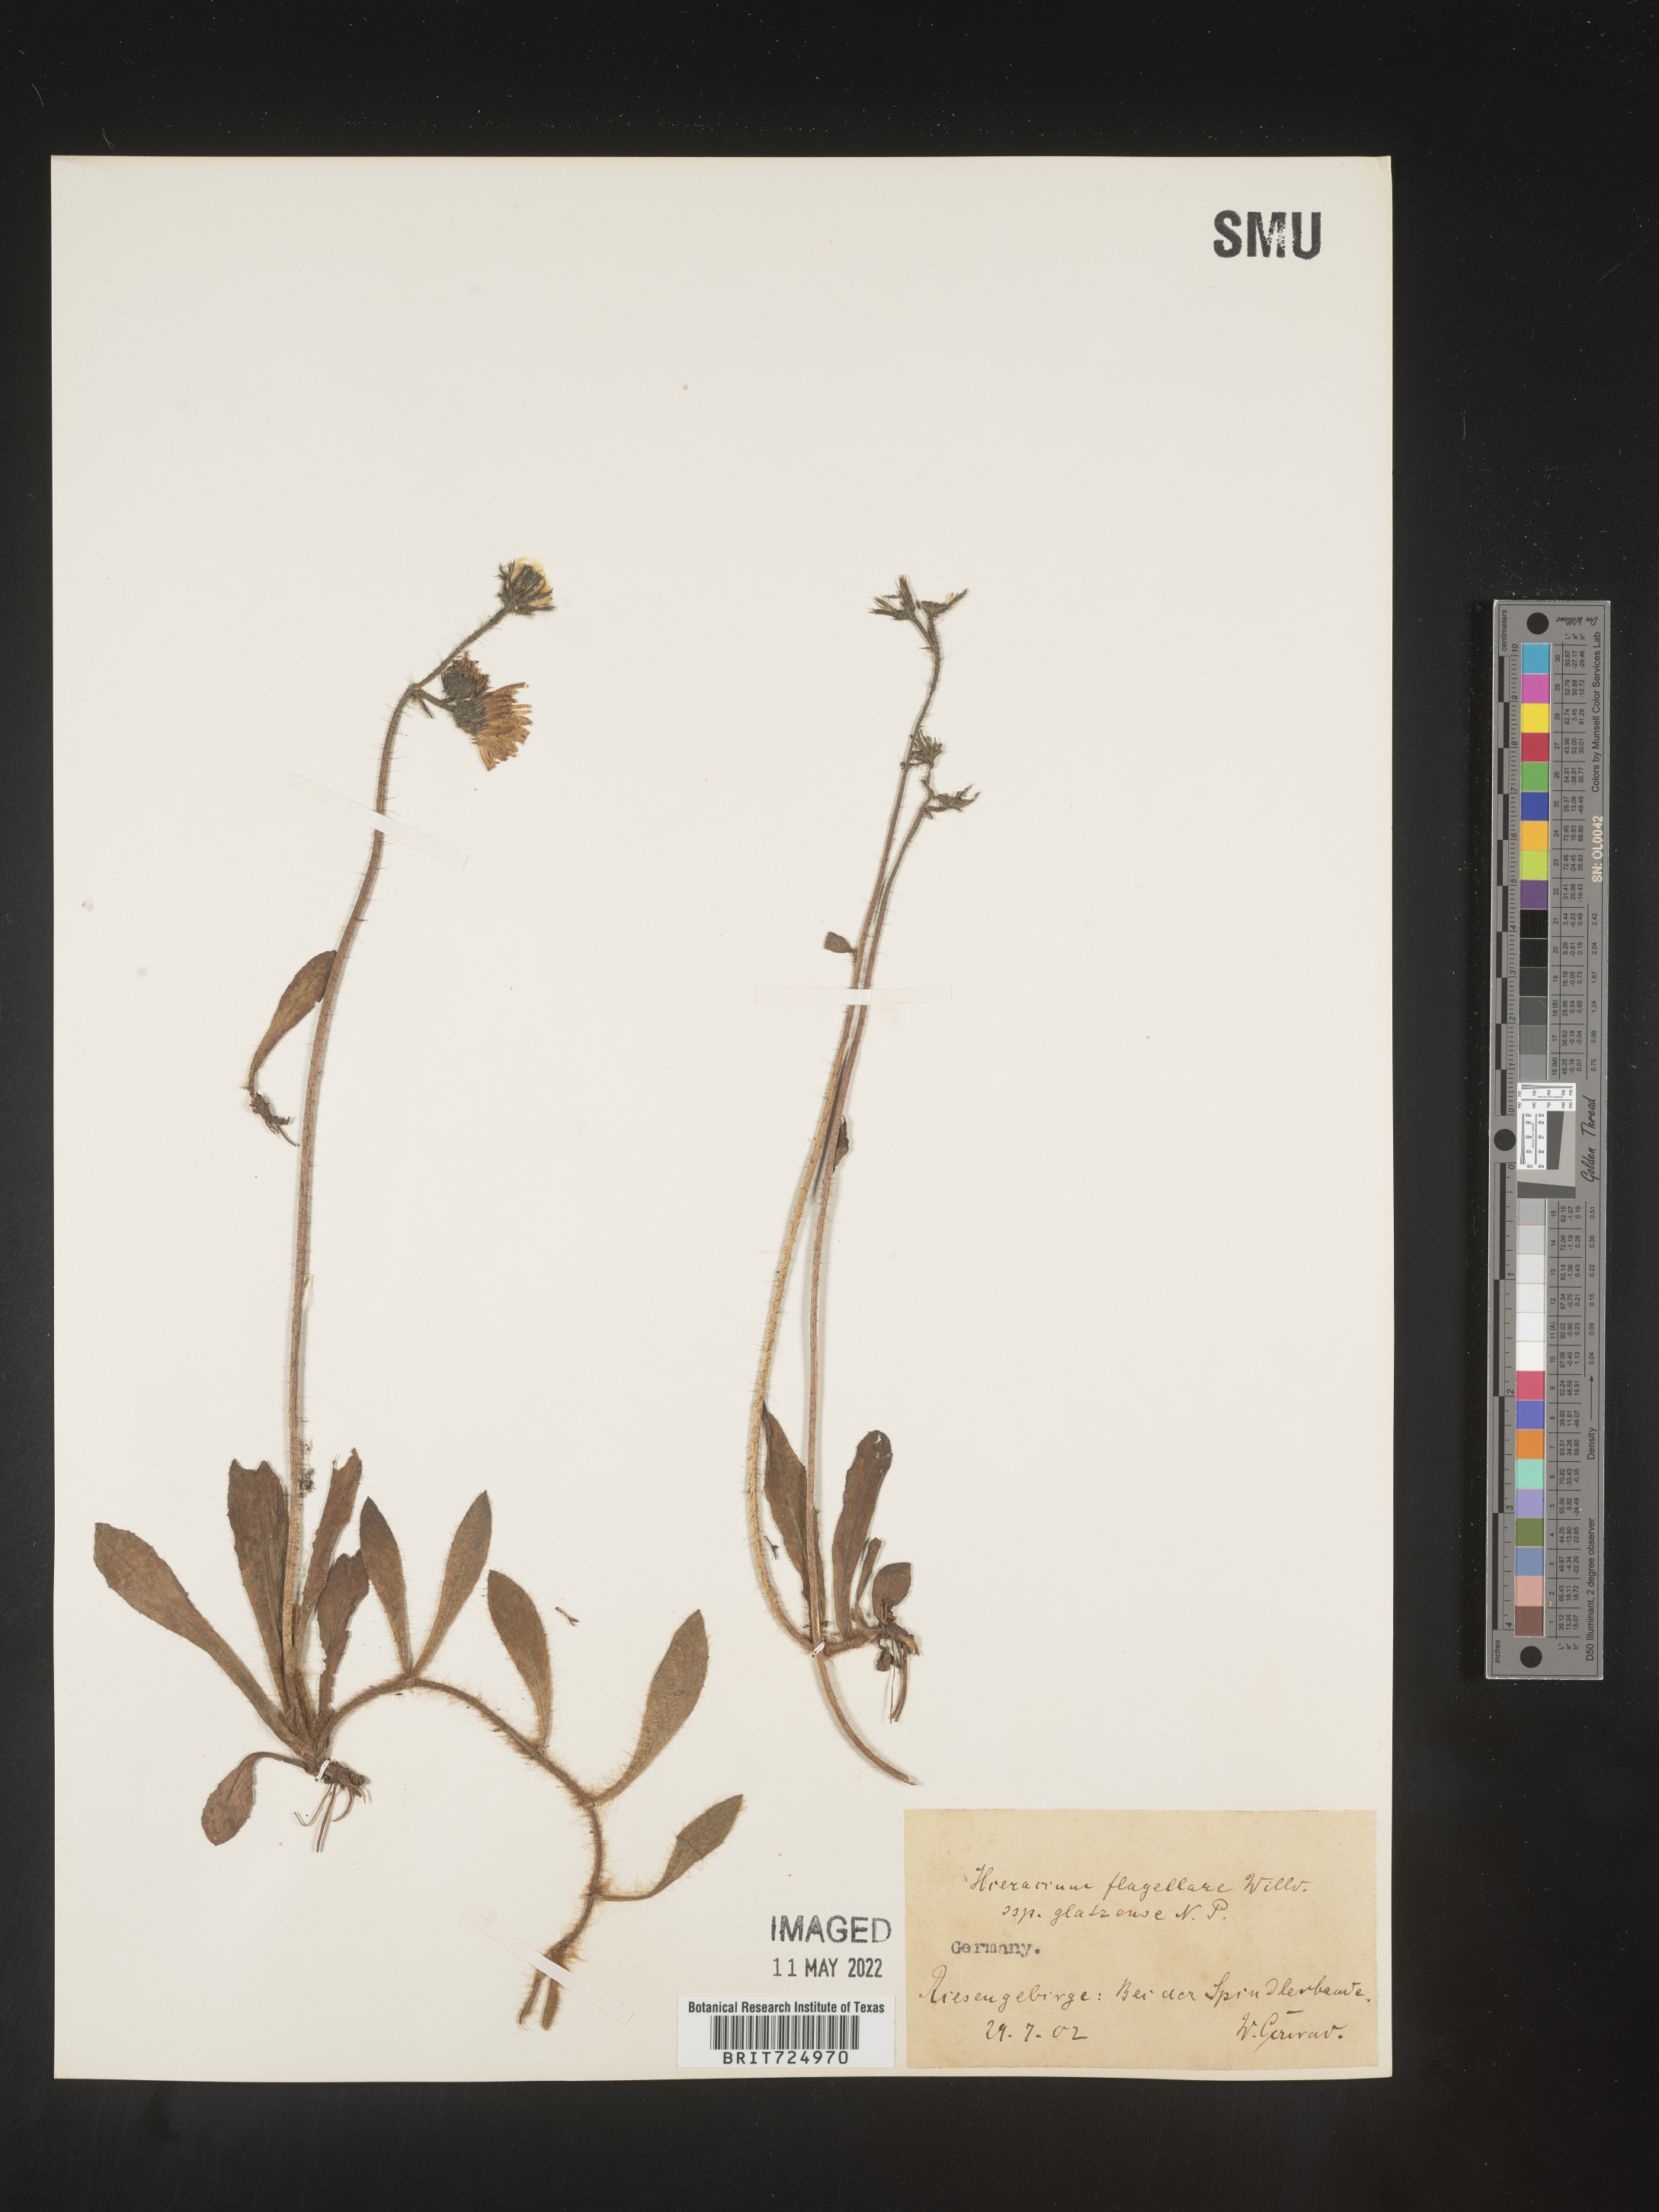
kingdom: Plantae
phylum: Tracheophyta
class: Magnoliopsida
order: Asterales
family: Asteraceae
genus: Hieracium
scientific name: Hieracium
